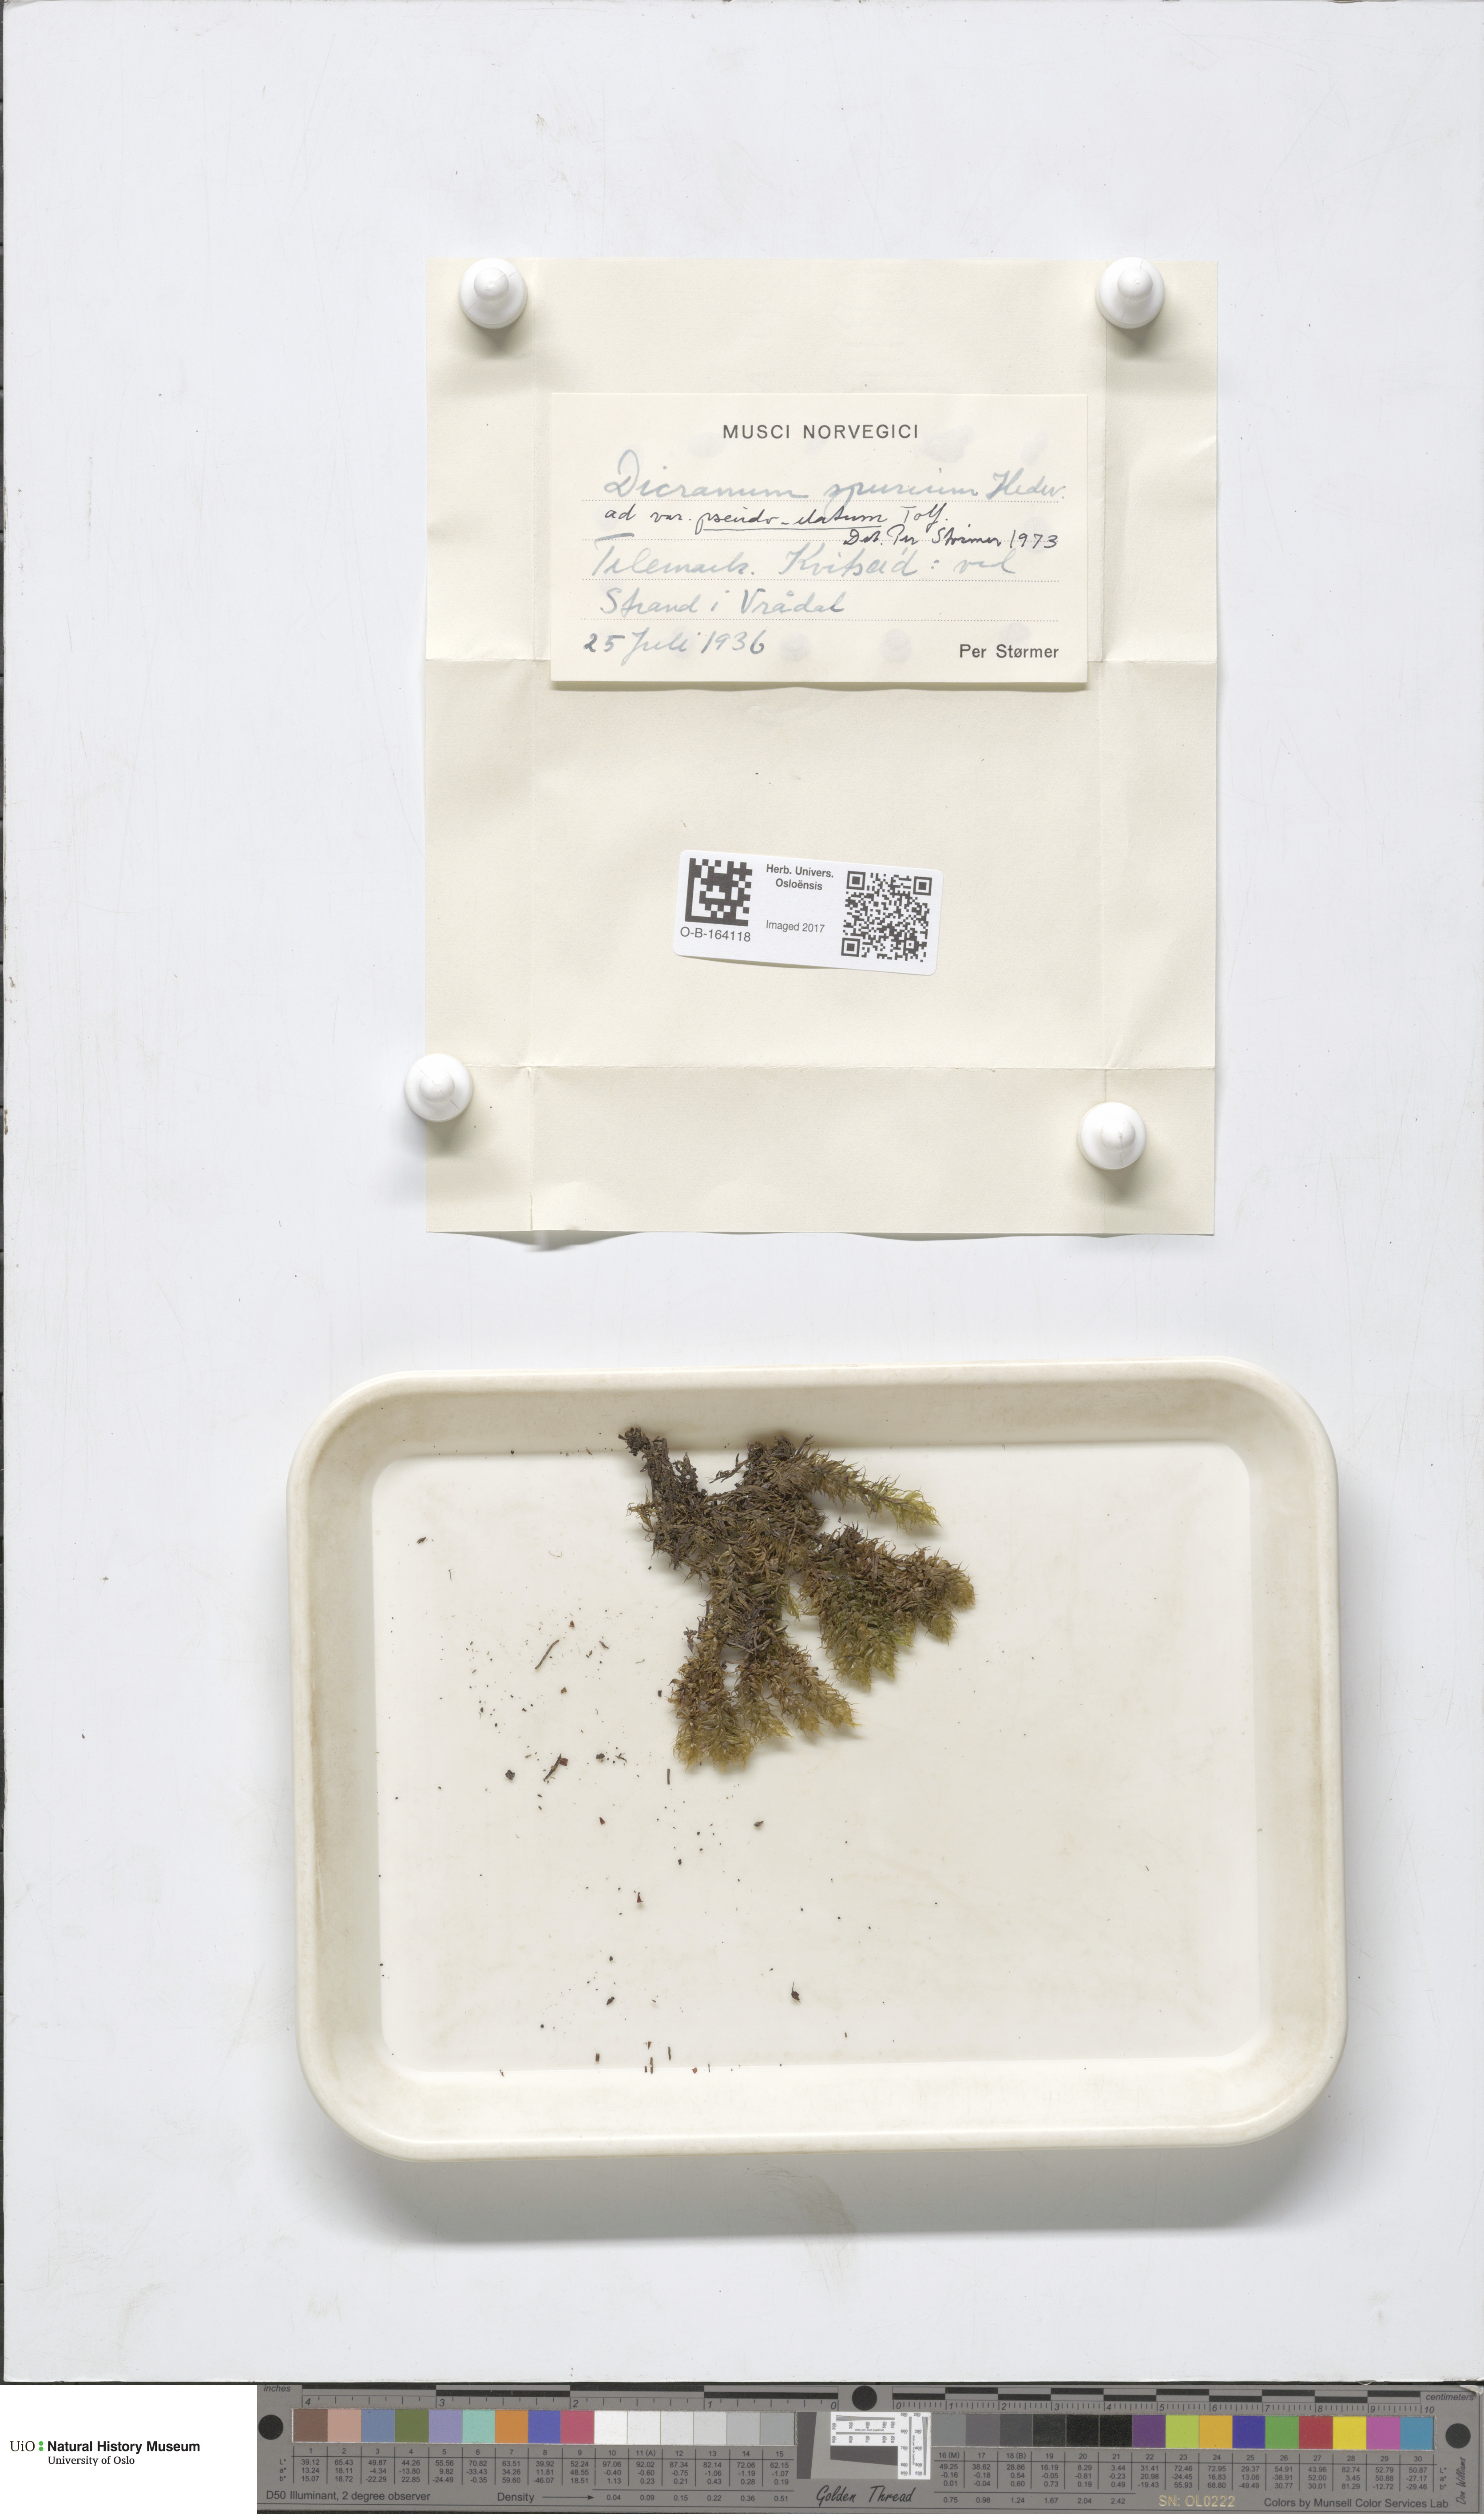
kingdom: Plantae
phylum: Bryophyta
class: Bryopsida
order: Dicranales
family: Dicranaceae
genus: Dicranum
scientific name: Dicranum spurium
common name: Spurred broom moss
